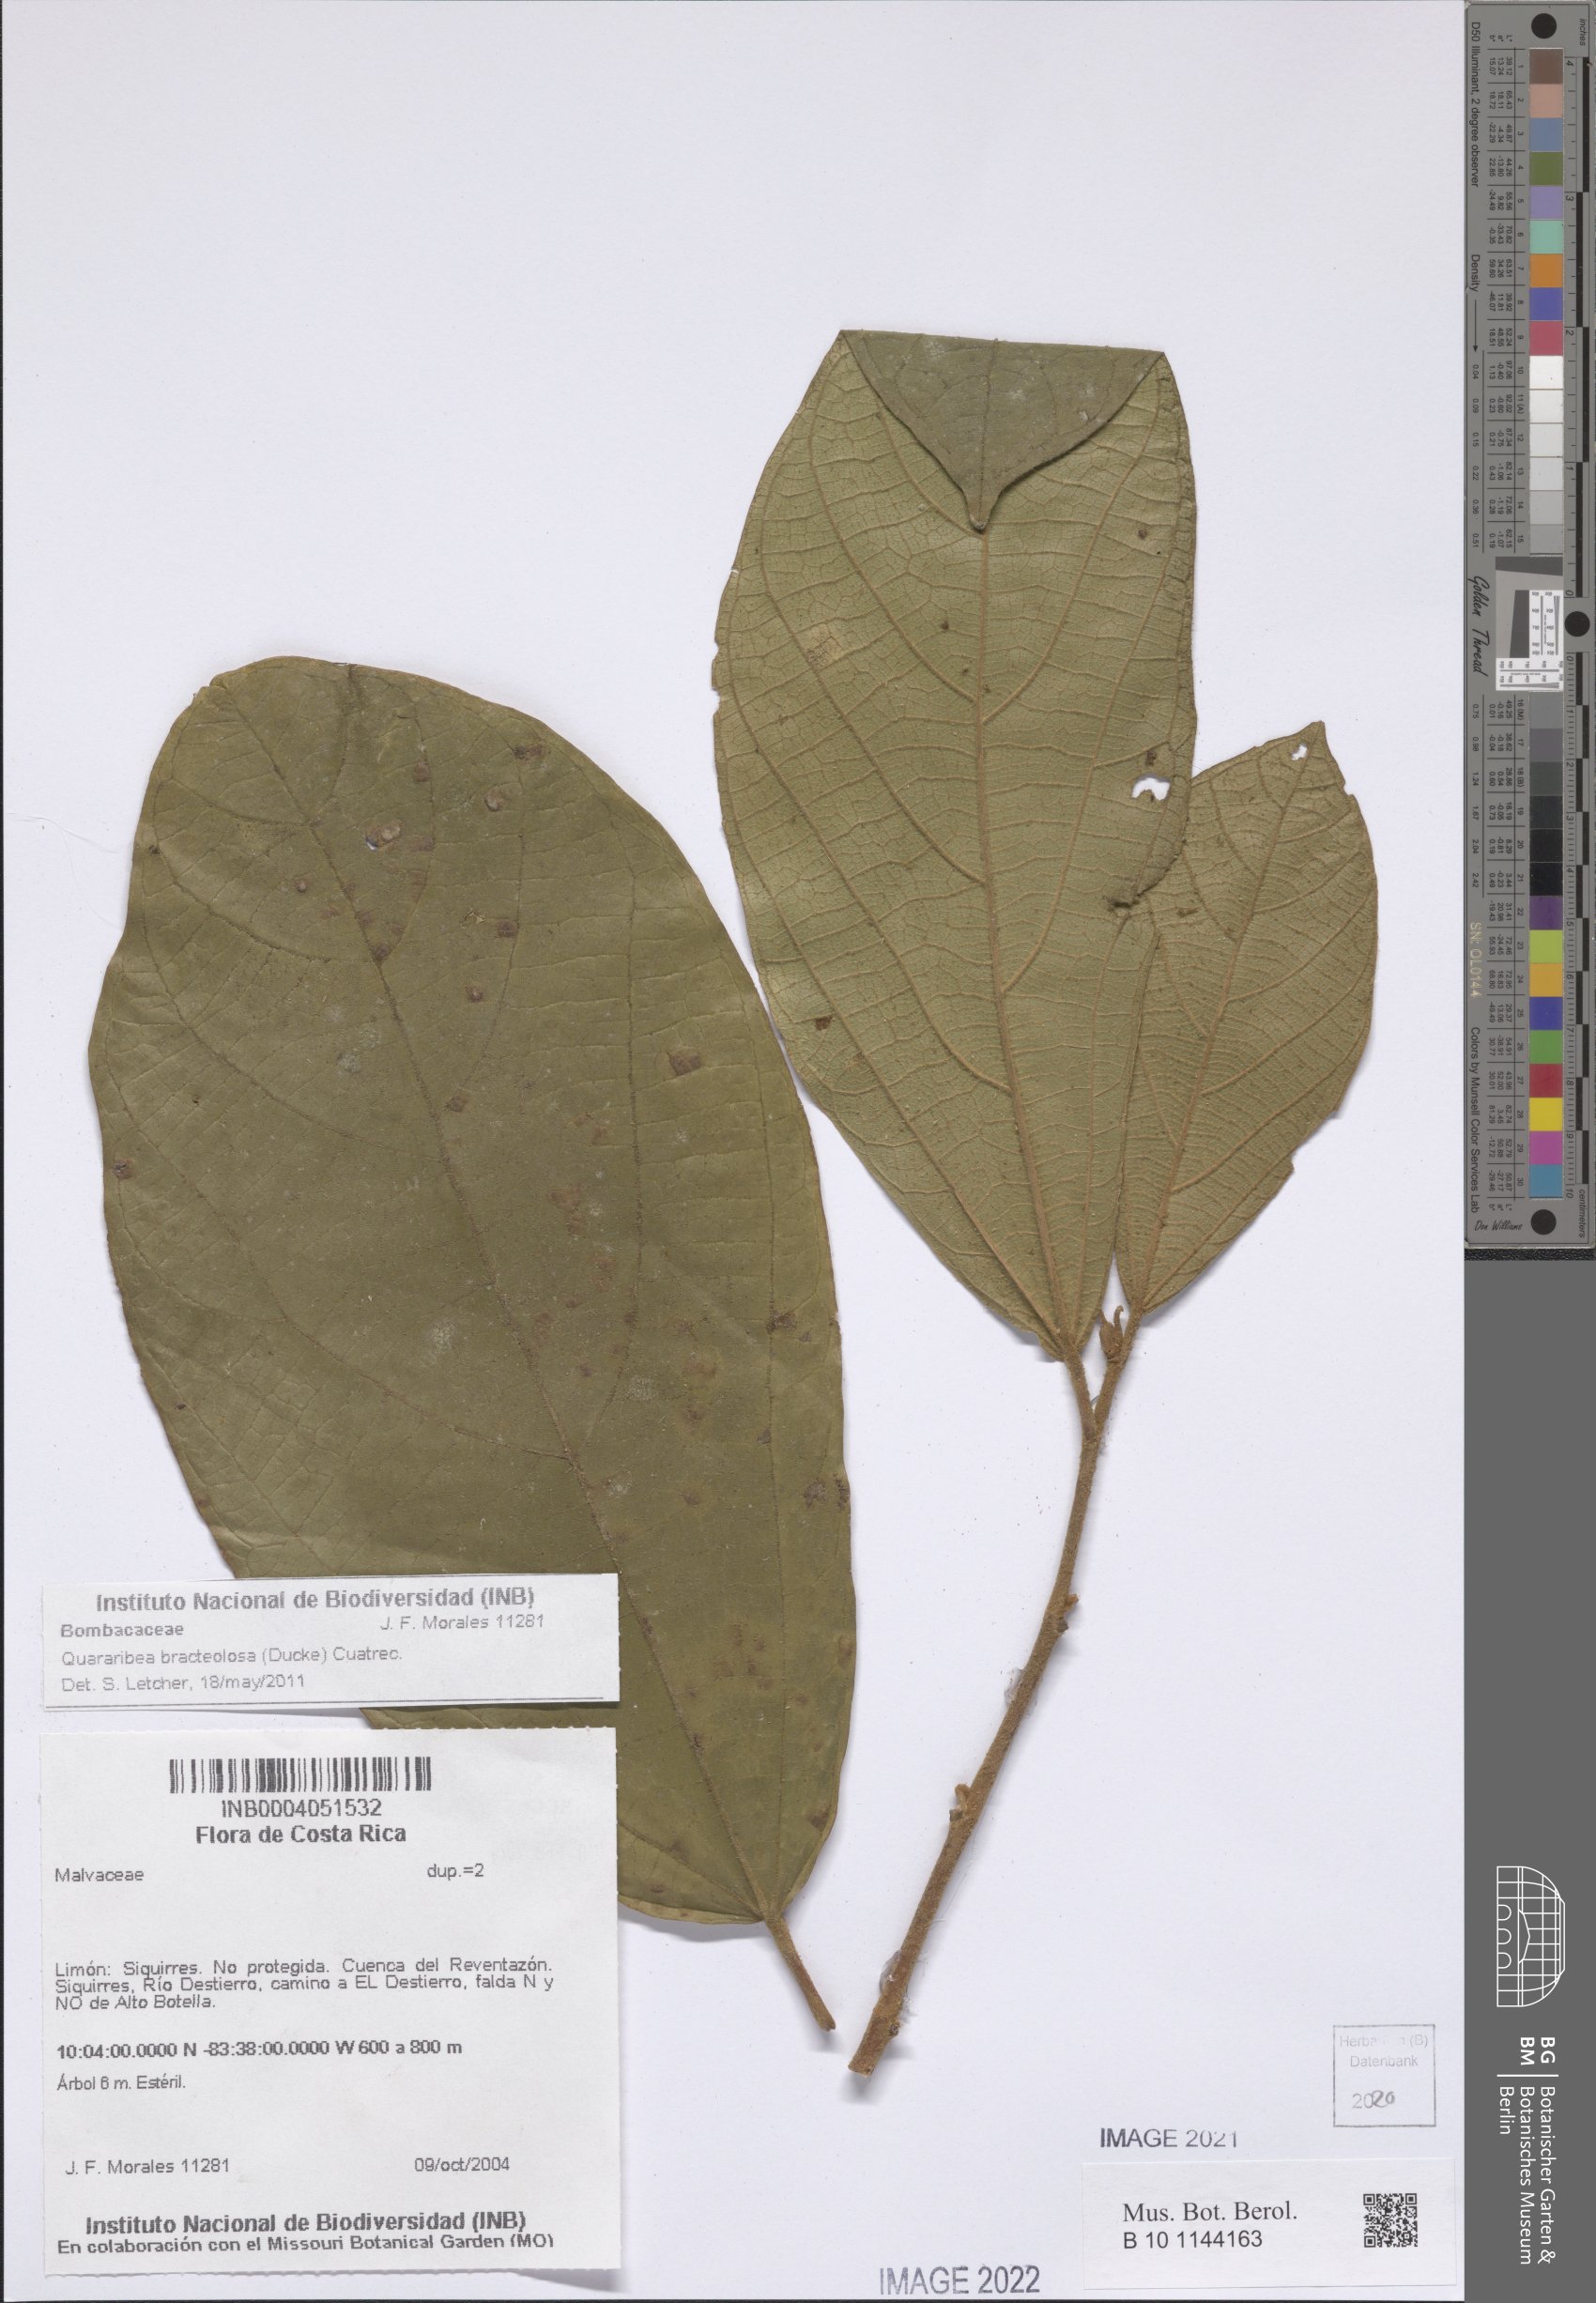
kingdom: Plantae
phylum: Tracheophyta
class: Magnoliopsida
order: Malvales
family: Malvaceae
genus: Matisia
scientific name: Matisia bracteolosa
